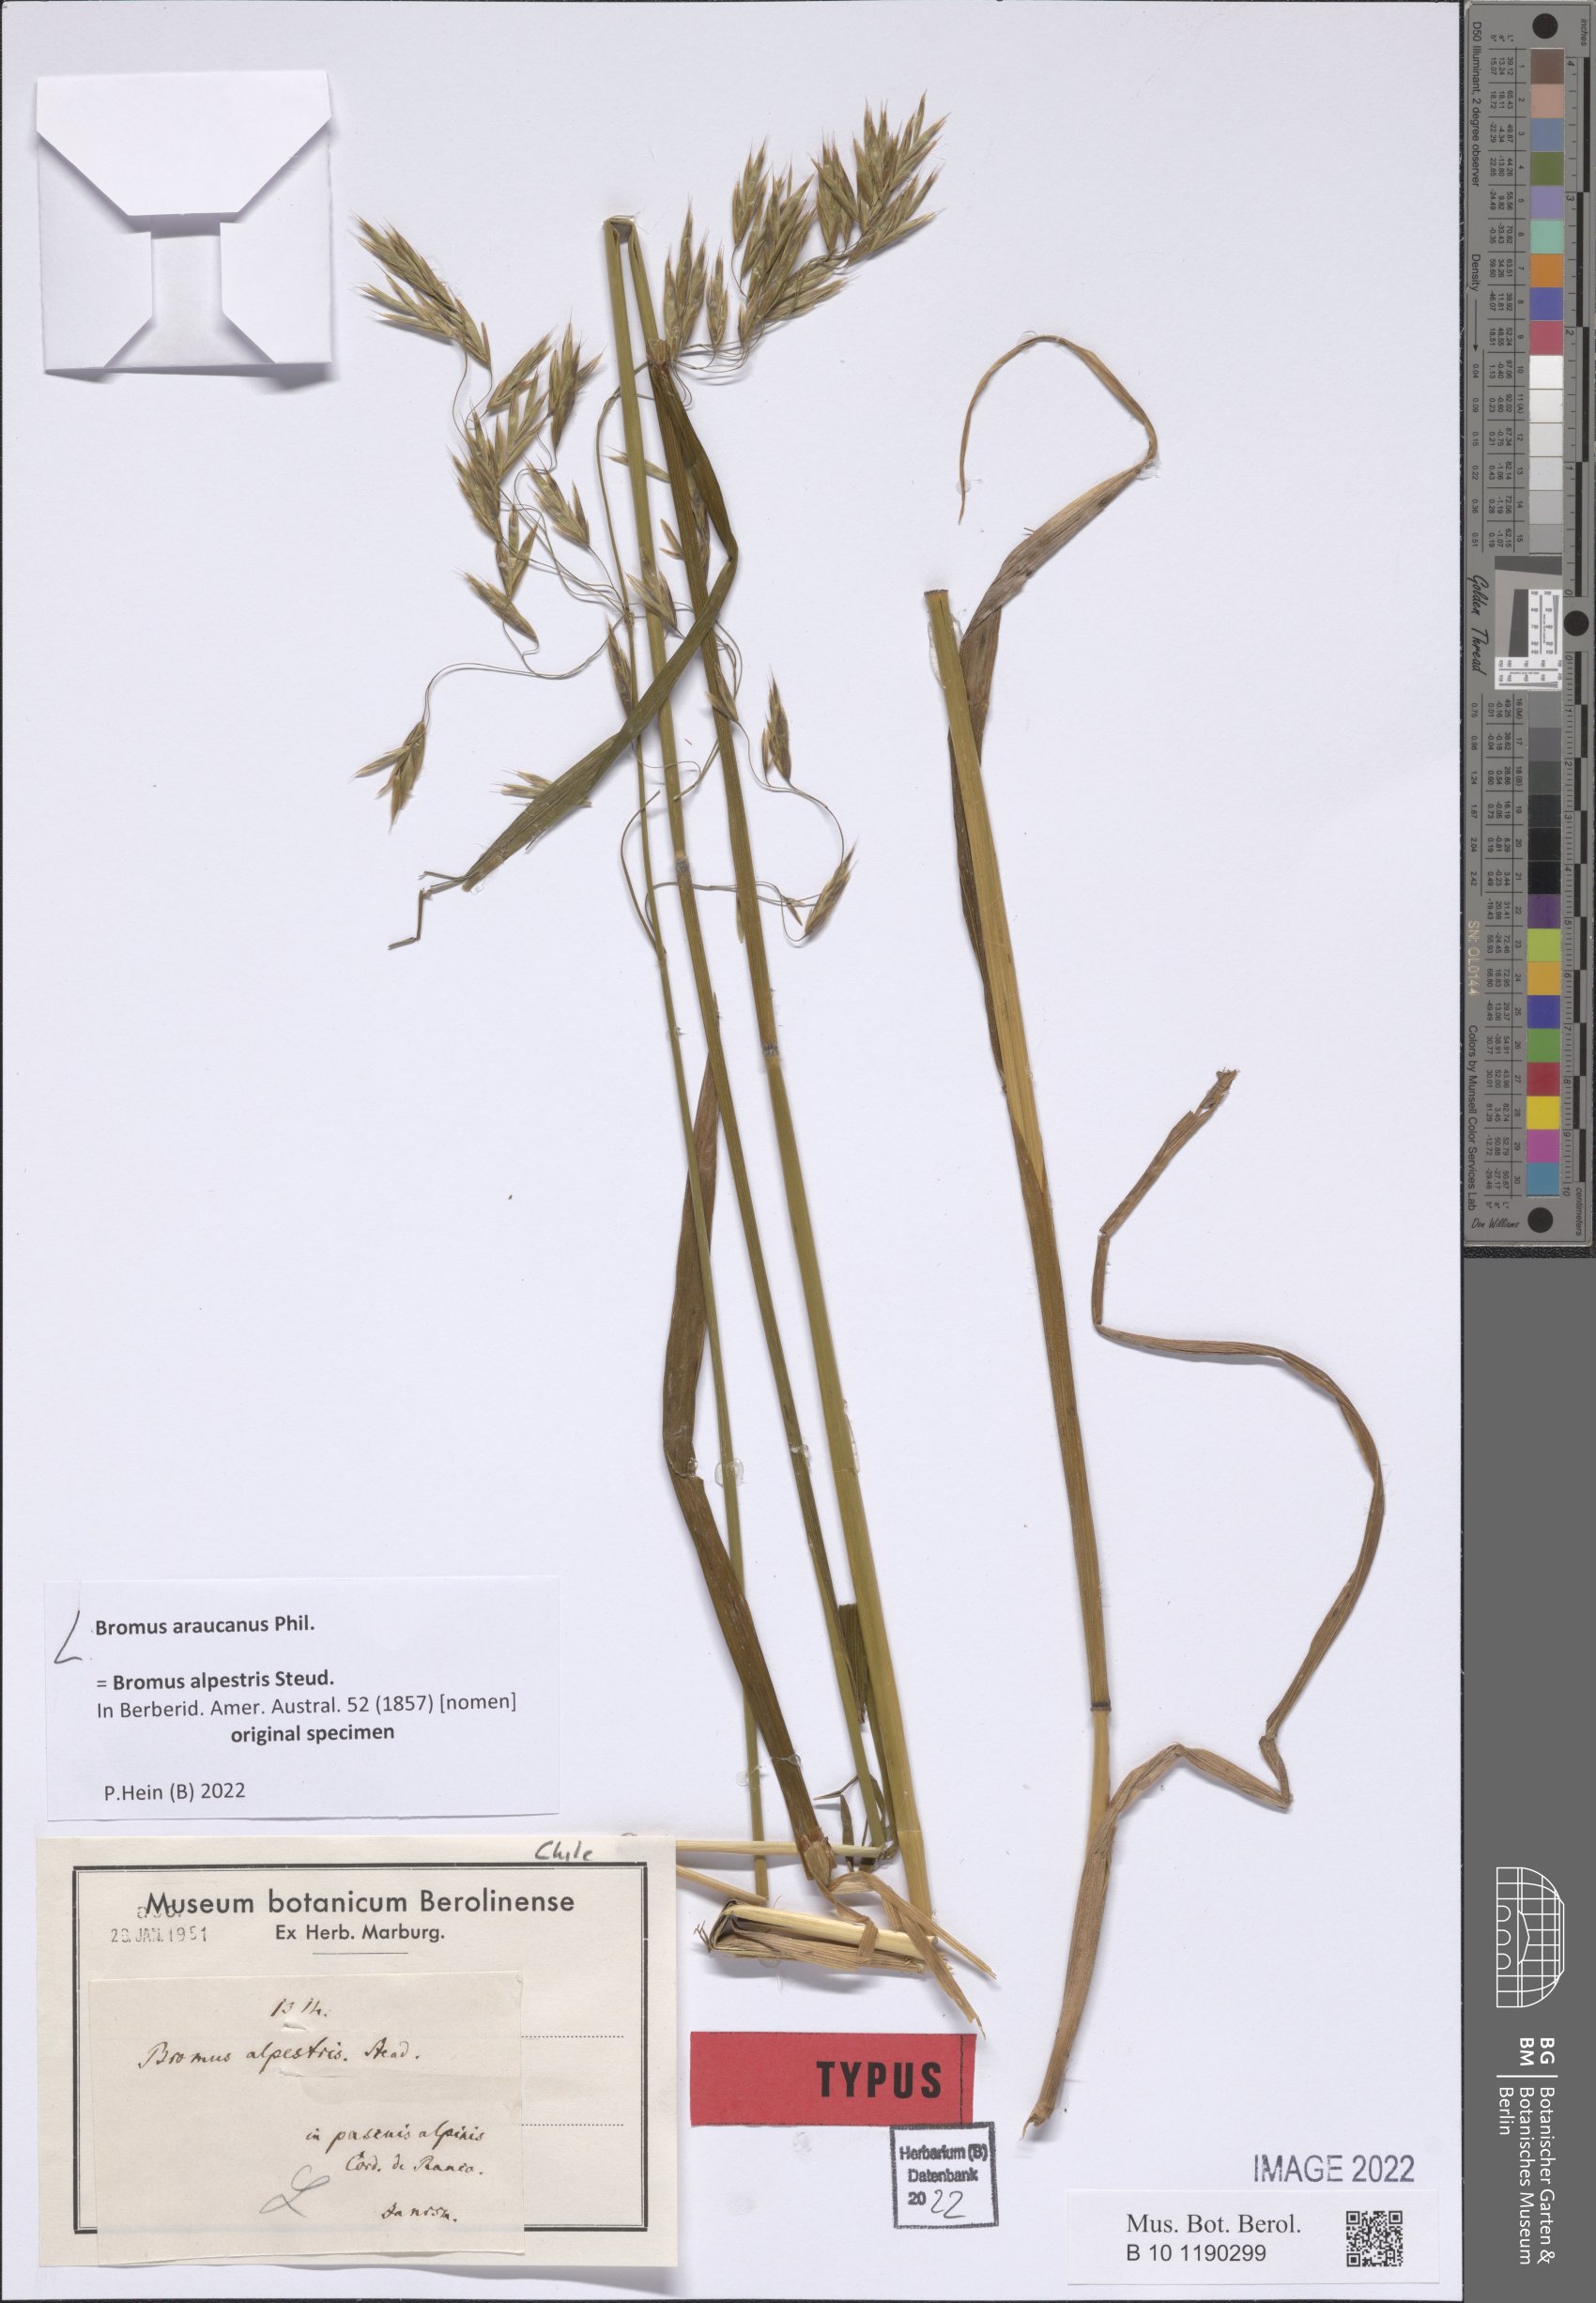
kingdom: Plantae
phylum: Tracheophyta
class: Liliopsida
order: Poales
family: Poaceae
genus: Bromus
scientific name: Bromus araucanus
